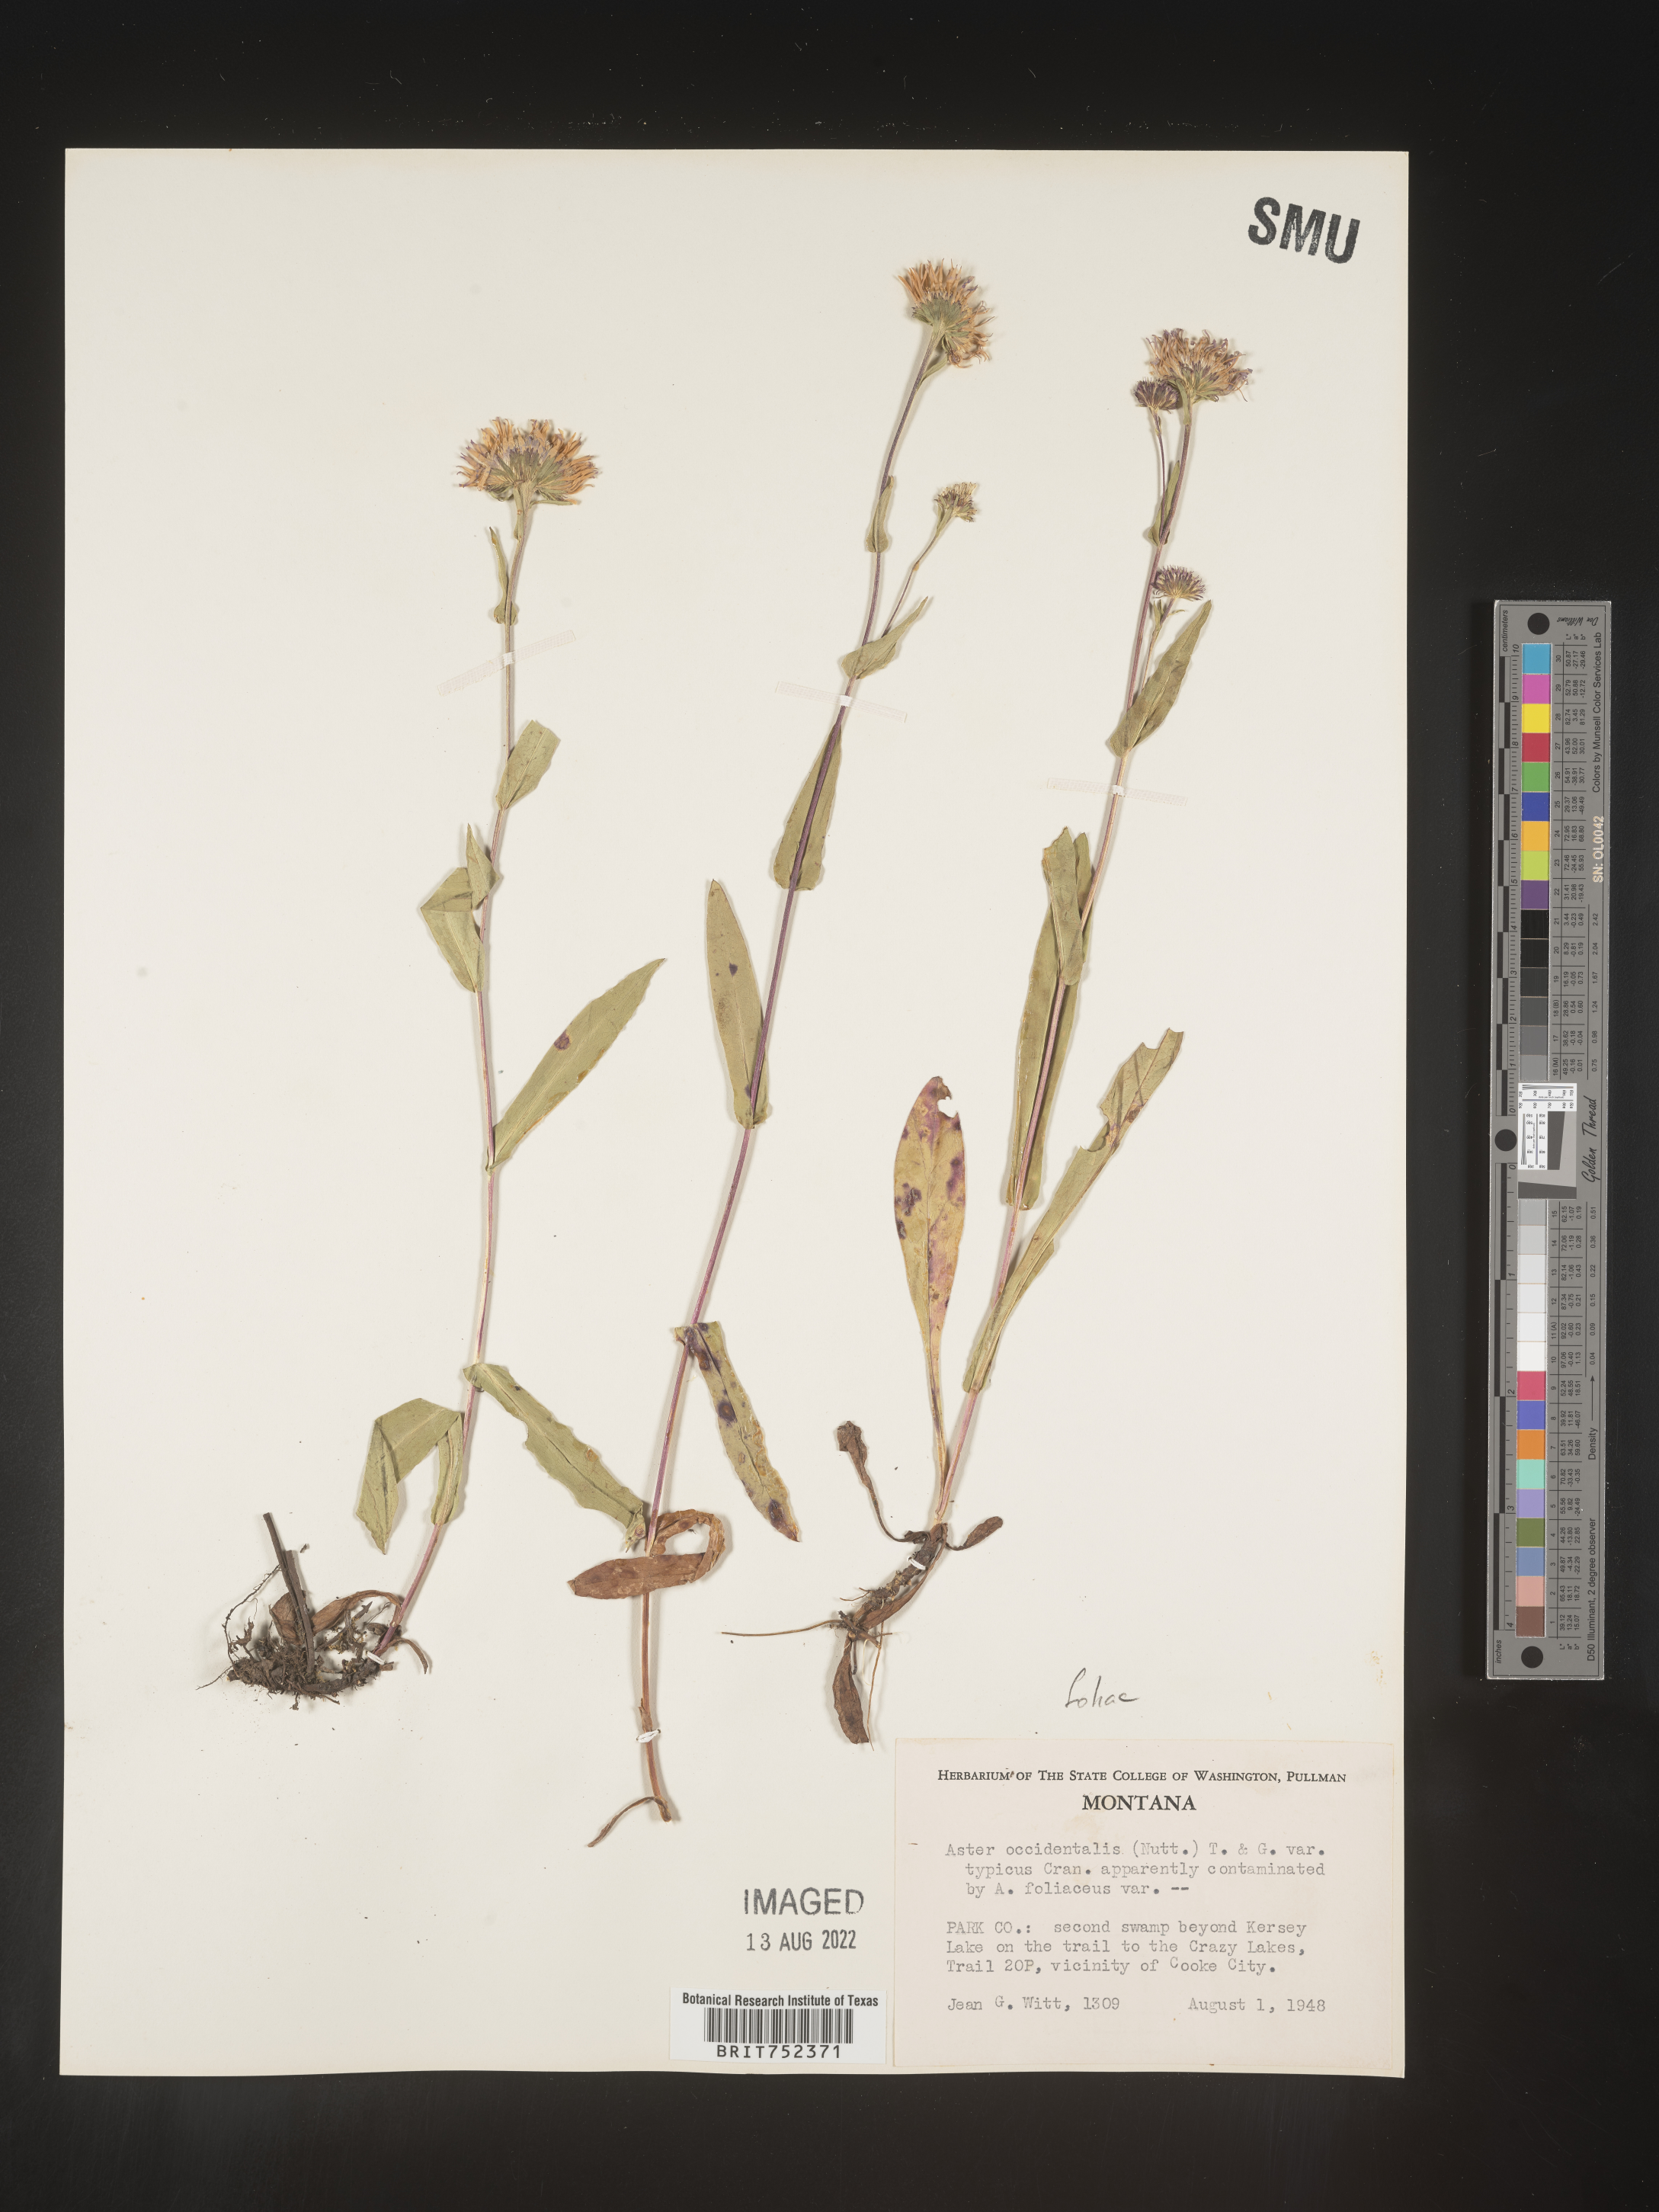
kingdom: Plantae
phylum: Tracheophyta
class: Magnoliopsida
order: Asterales
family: Asteraceae
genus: Symphyotrichum
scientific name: Symphyotrichum foliaceum
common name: Leafy aster
